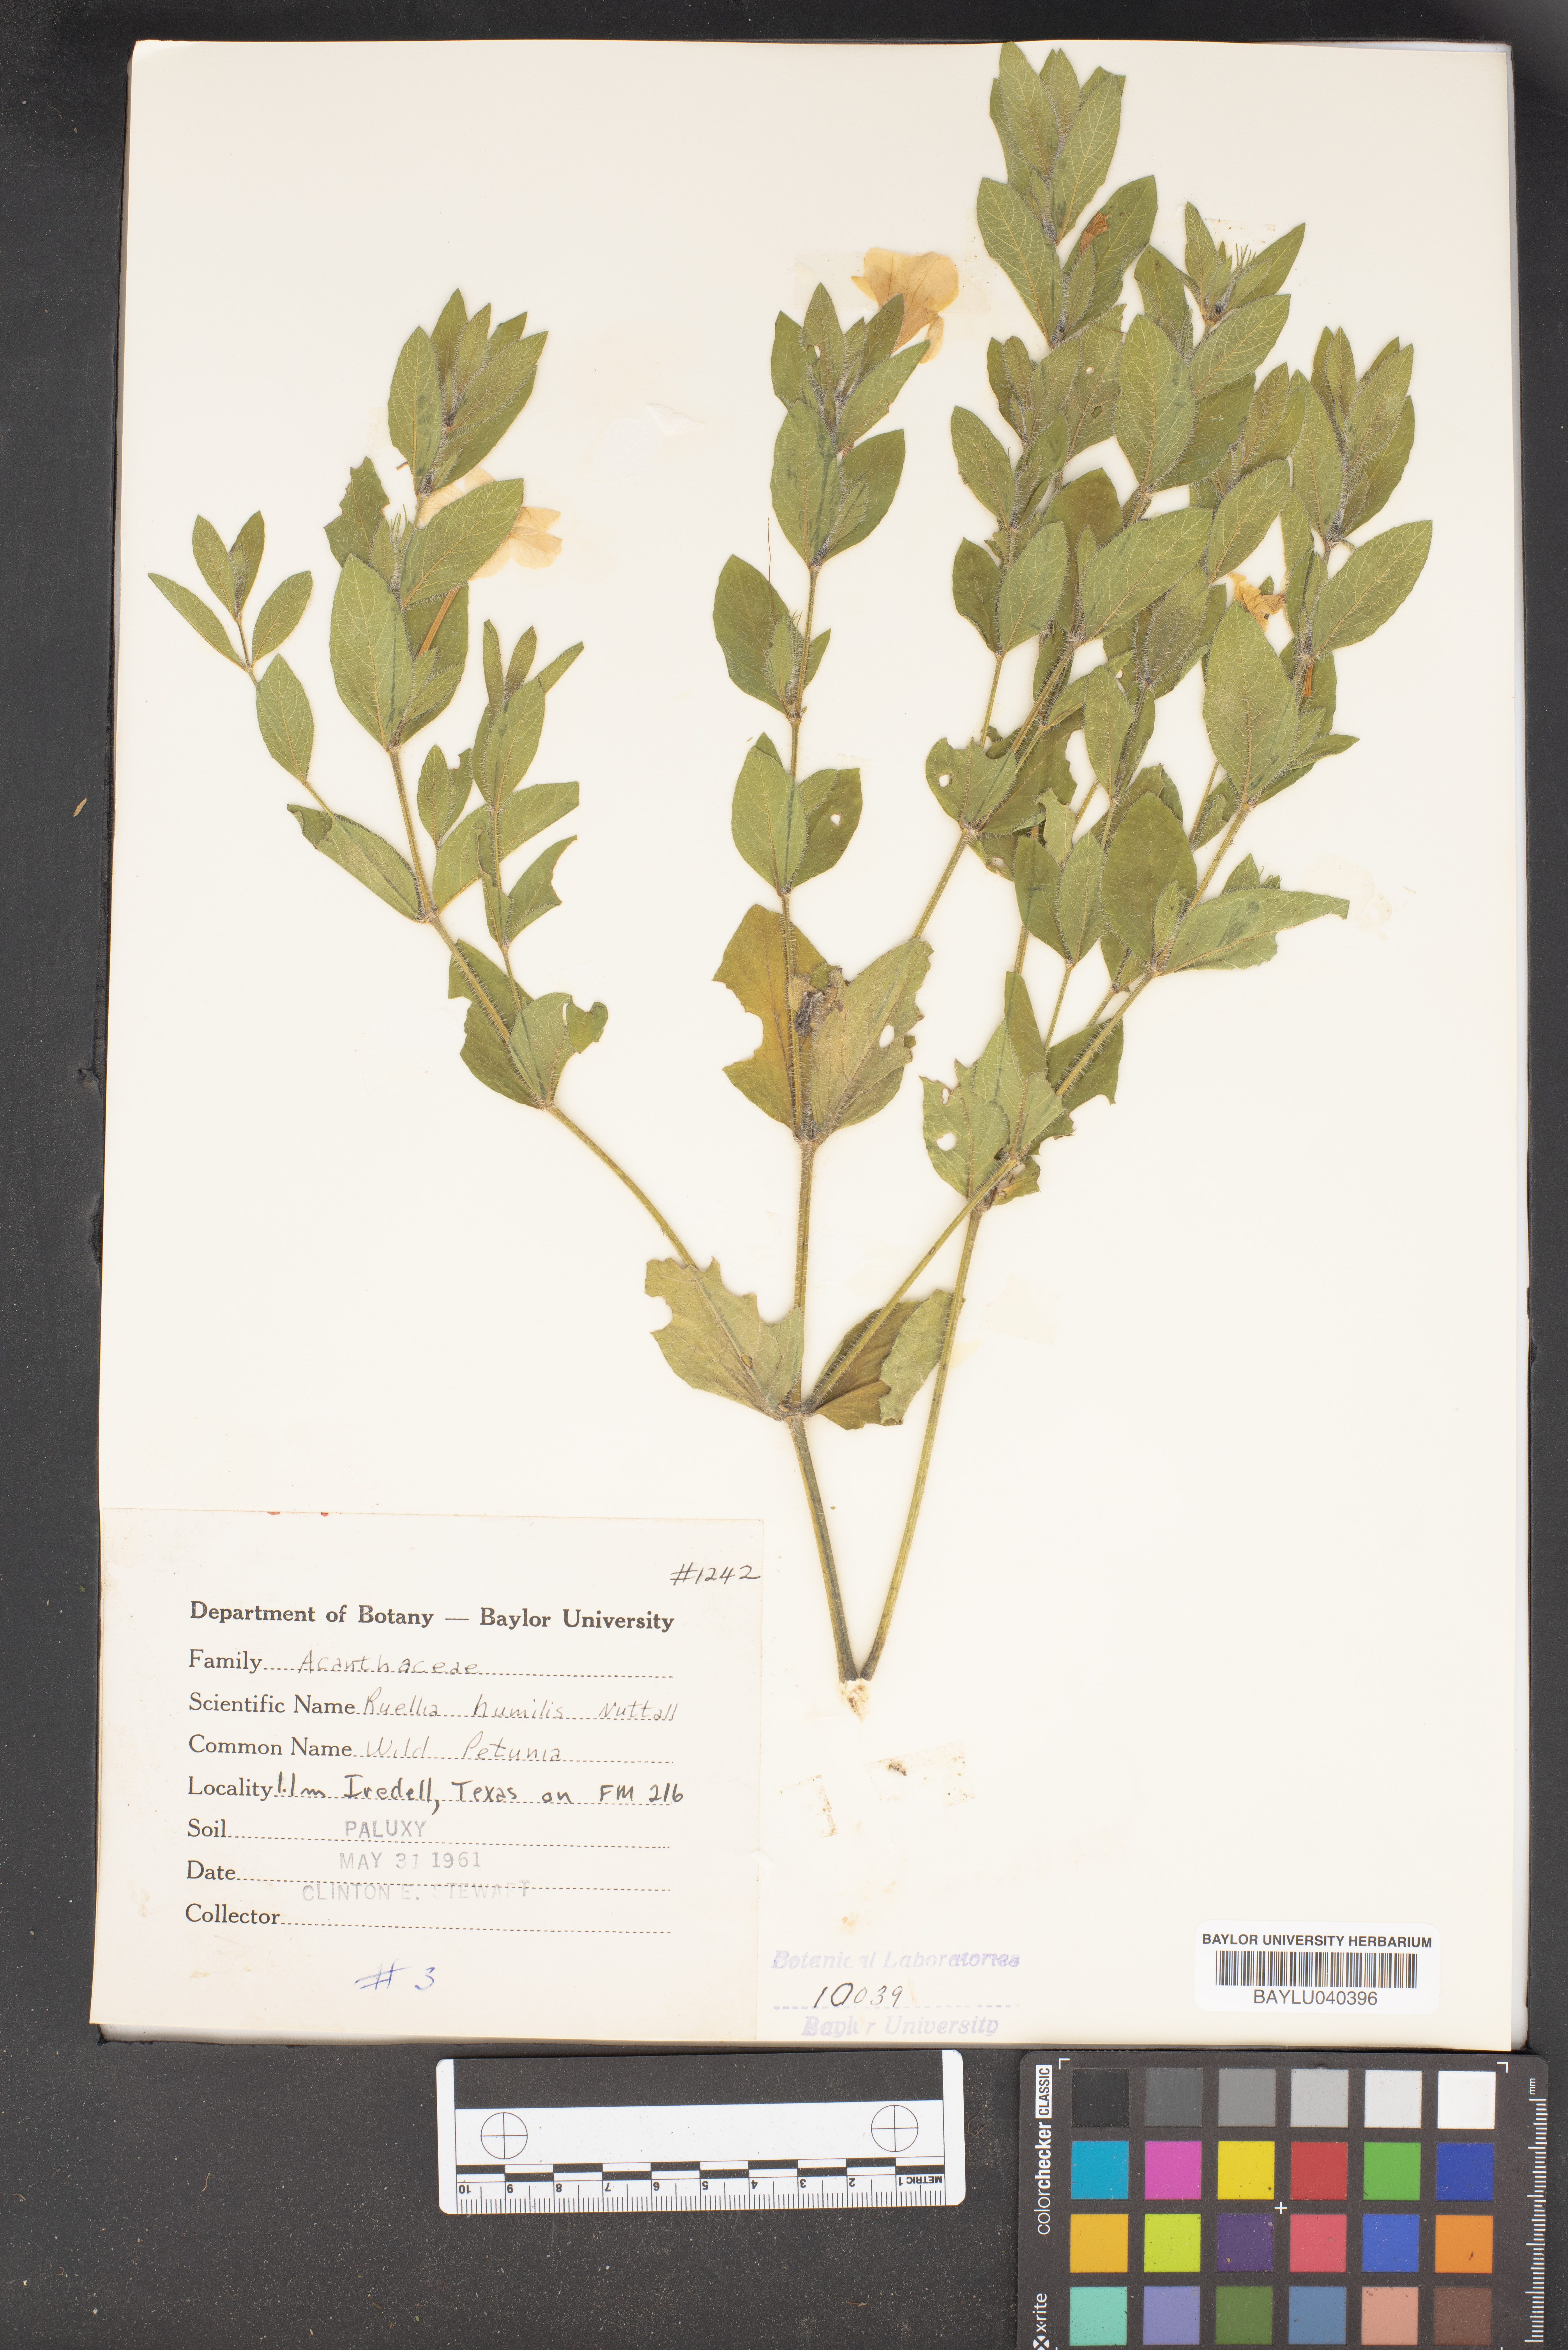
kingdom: Plantae
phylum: Tracheophyta
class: Magnoliopsida
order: Lamiales
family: Acanthaceae
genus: Ruellia
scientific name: Ruellia humilis
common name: Fringe-leaf ruellia
